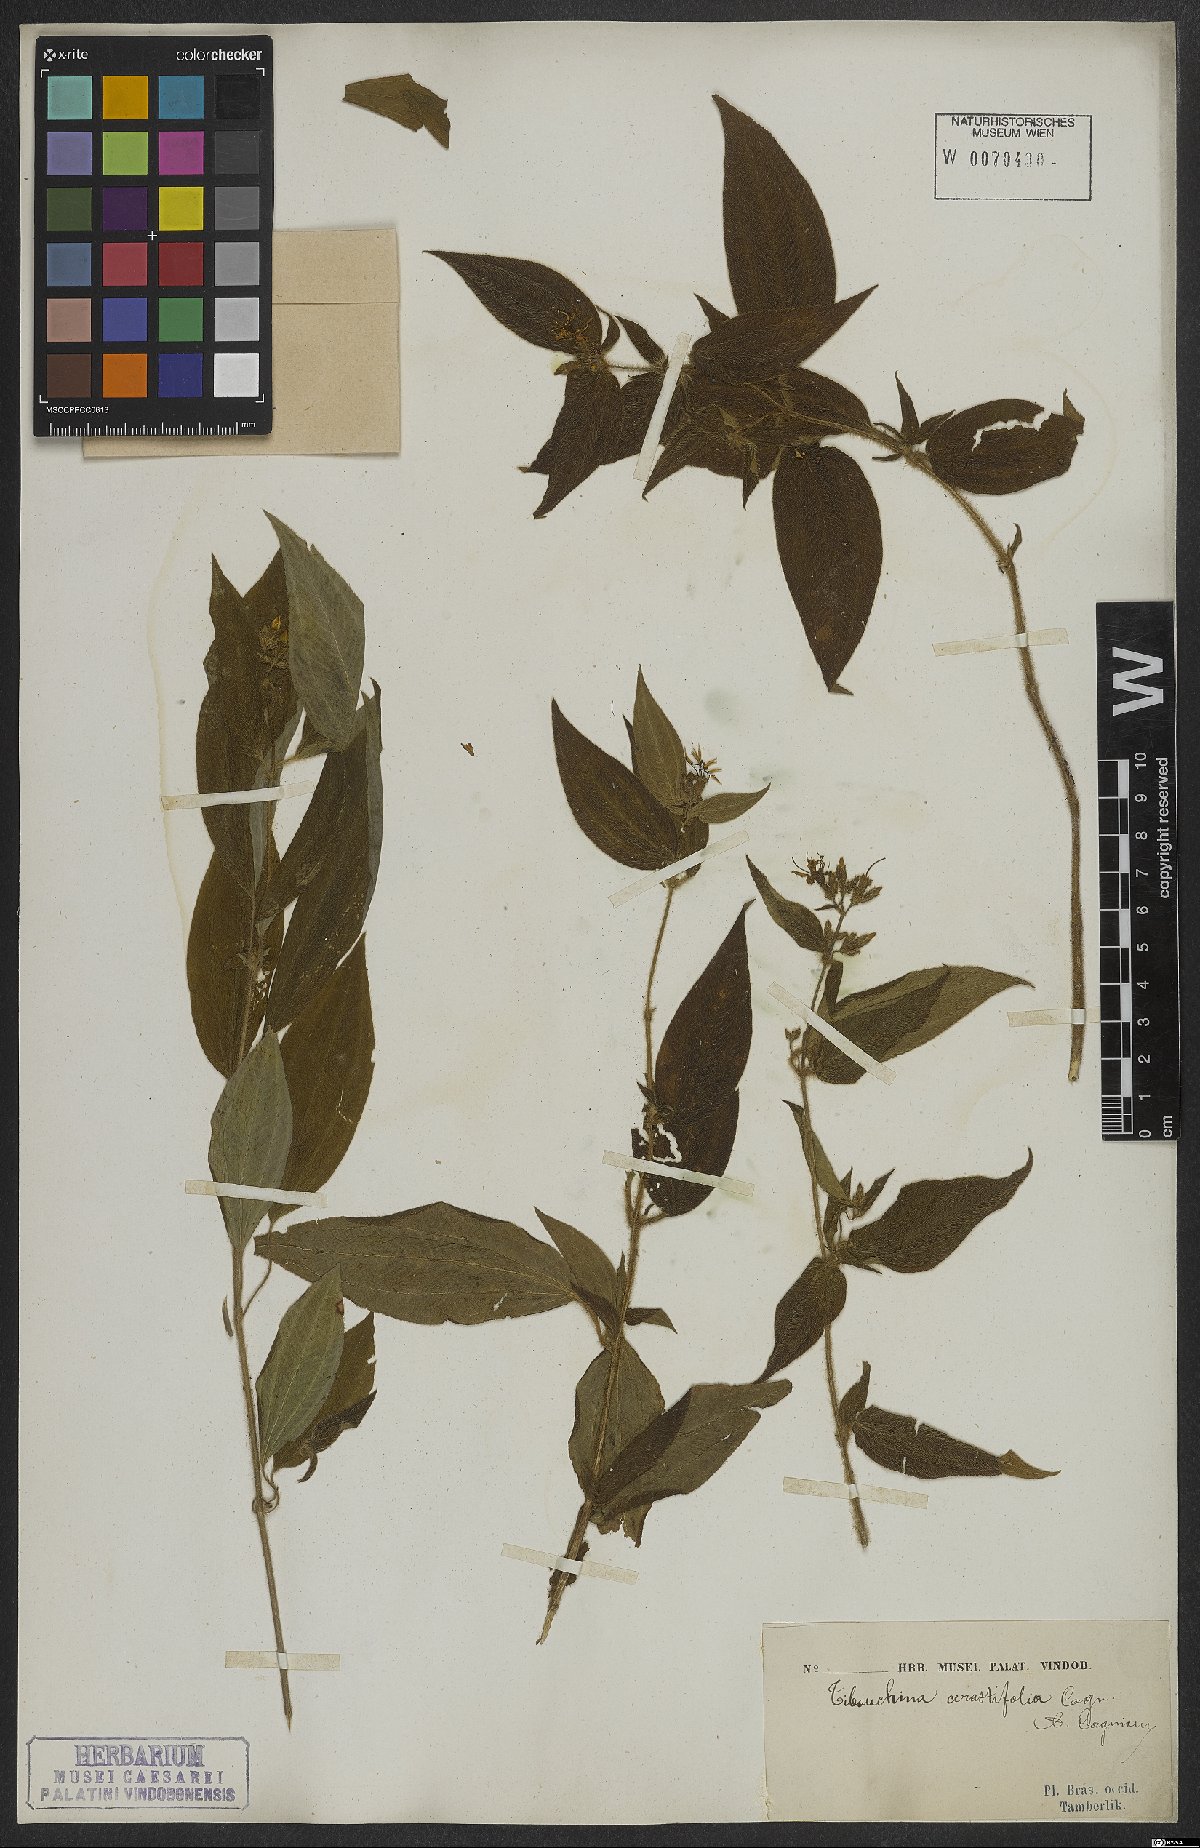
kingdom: Plantae
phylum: Tracheophyta
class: Magnoliopsida
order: Myrtales
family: Melastomataceae
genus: Chaetogastra
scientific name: Chaetogastra cerastifolia
